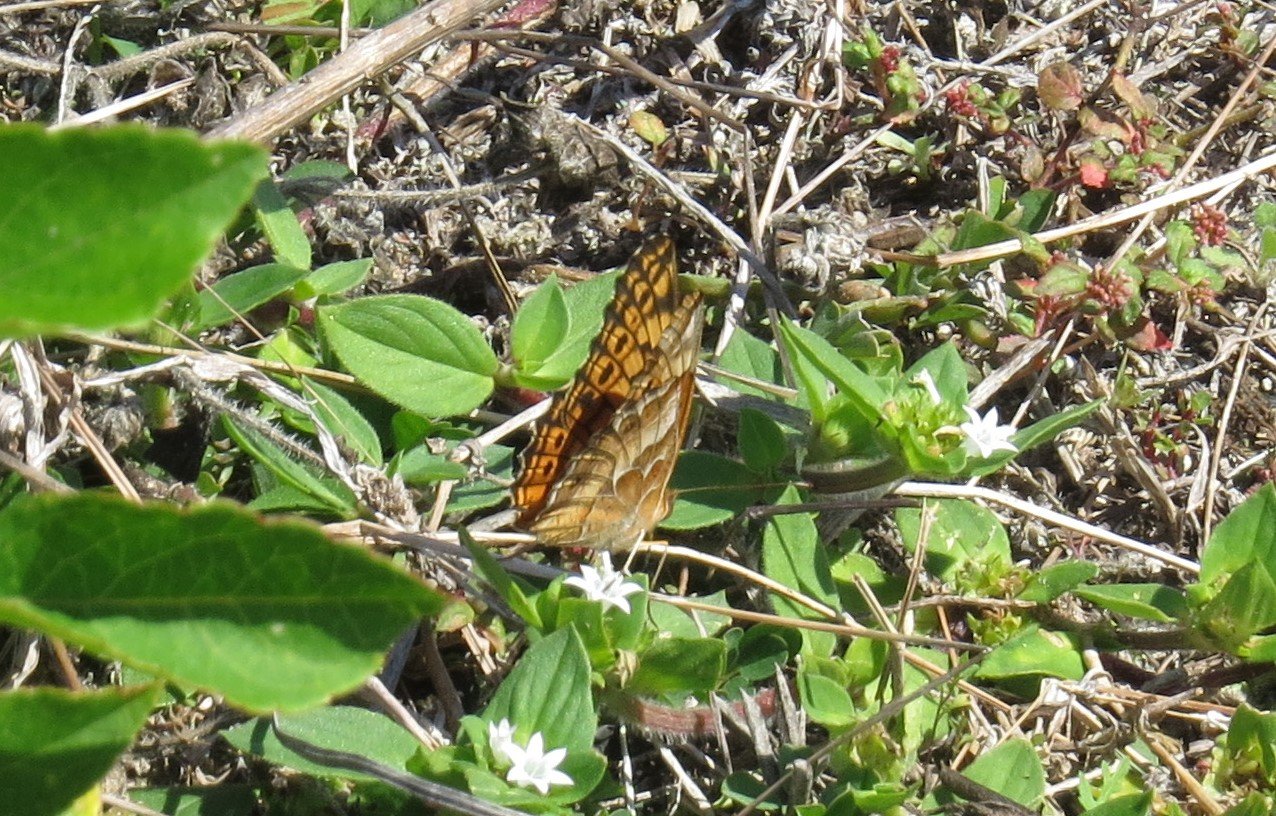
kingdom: Animalia
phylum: Arthropoda
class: Insecta
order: Lepidoptera
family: Nymphalidae
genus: Euptoieta
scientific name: Euptoieta claudia
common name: Variegated Fritillary
